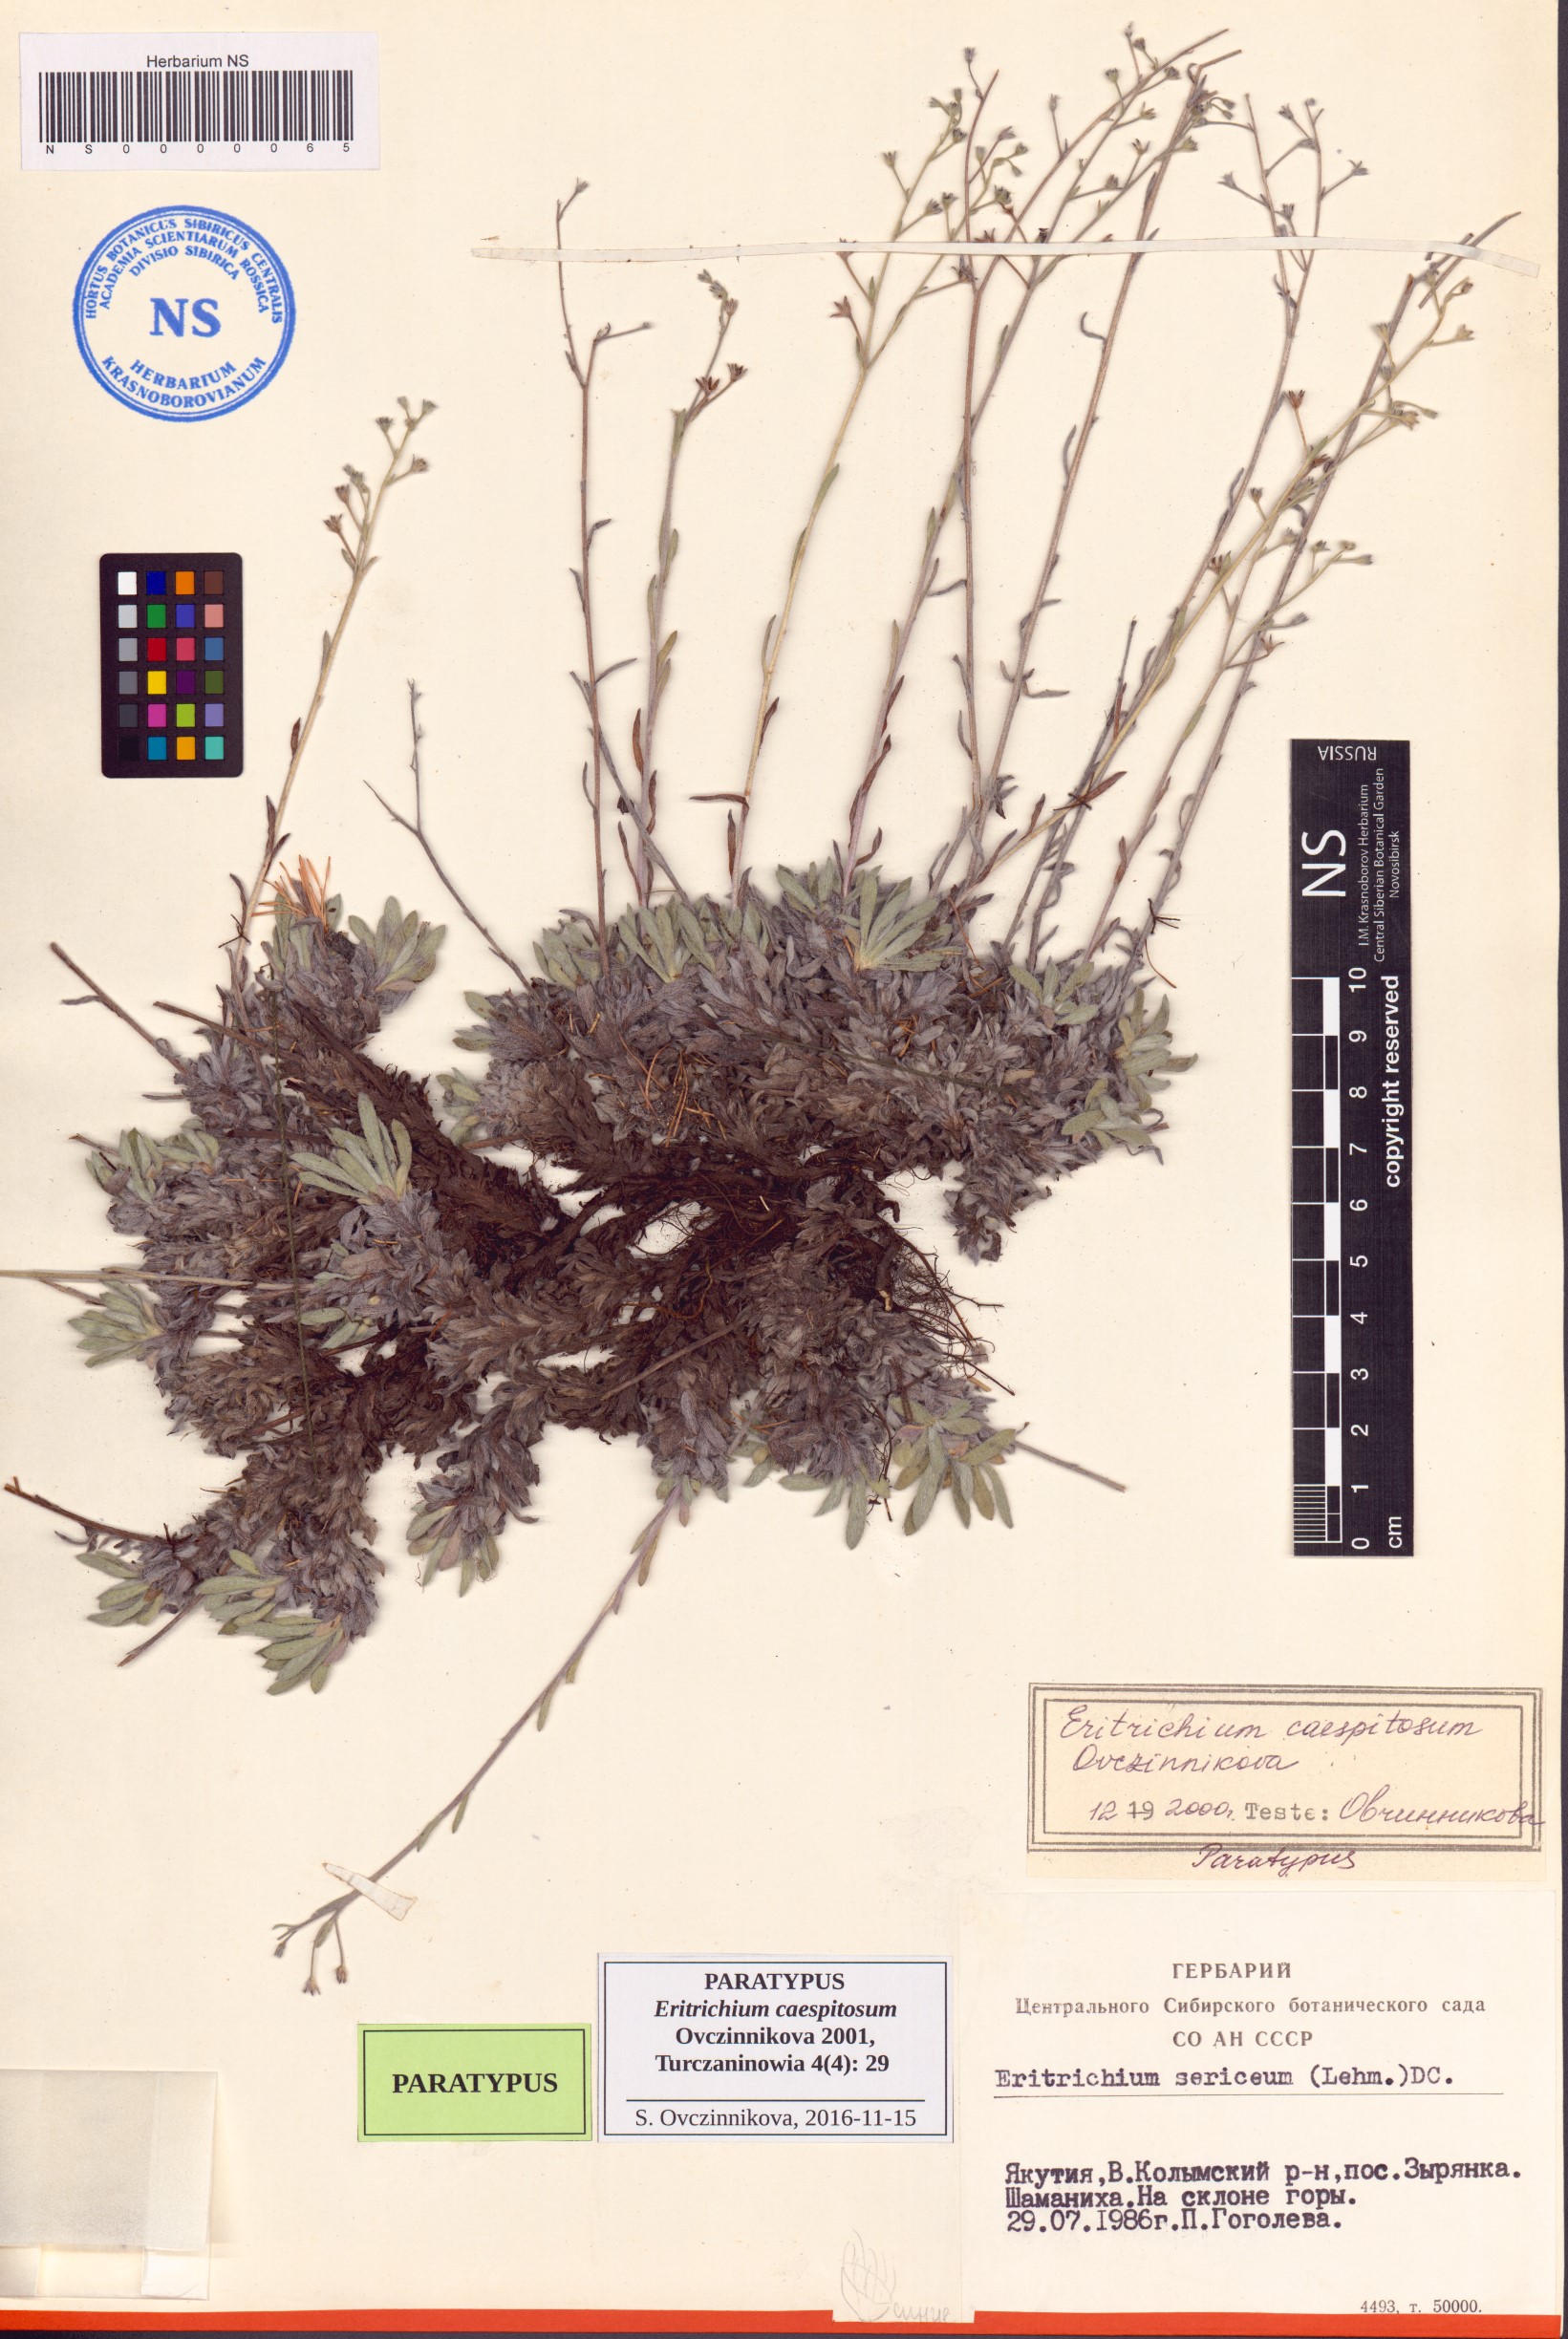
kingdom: Plantae
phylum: Tracheophyta
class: Magnoliopsida
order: Boraginales
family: Boraginaceae
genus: Eritrichium
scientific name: Eritrichium caespitosum
